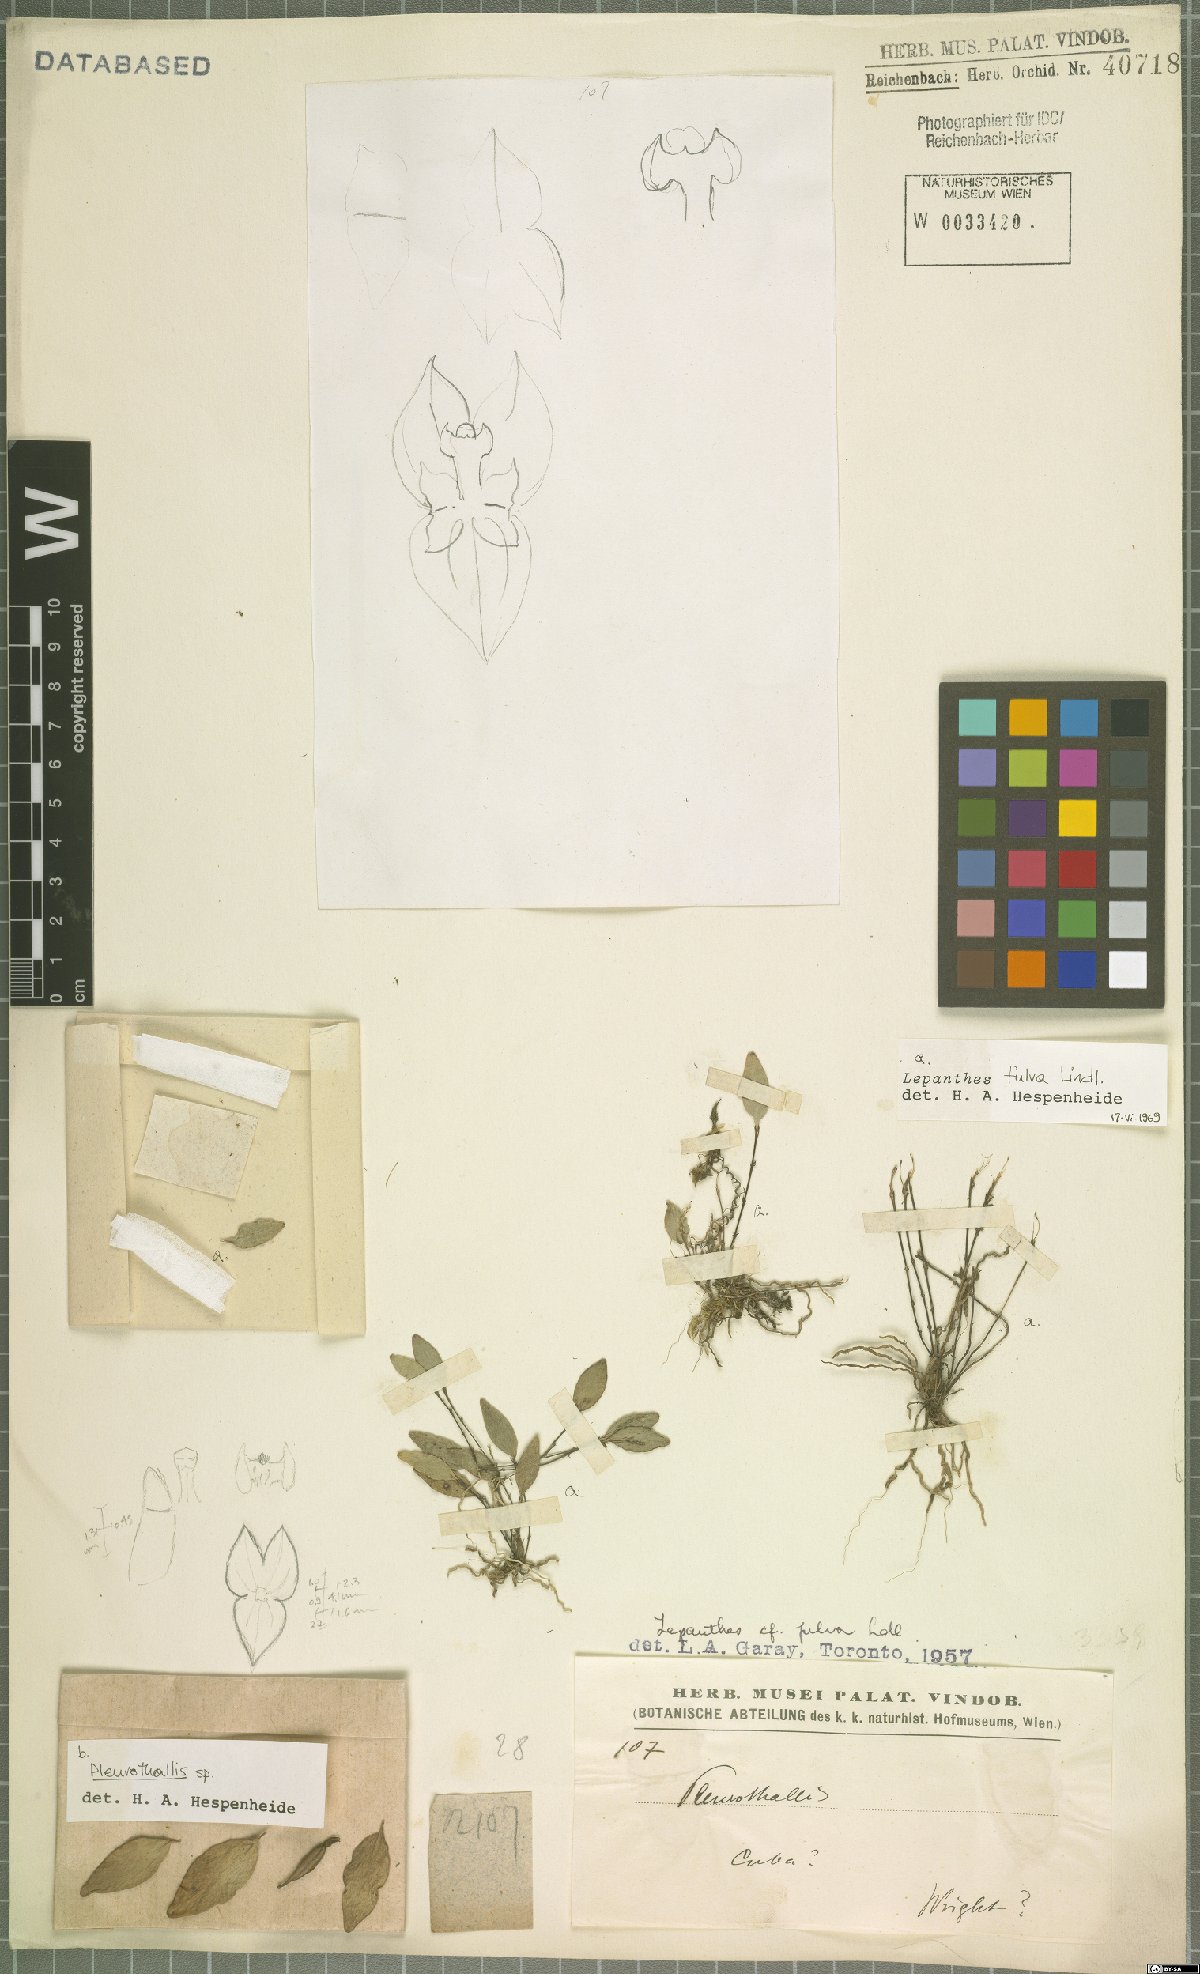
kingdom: Plantae
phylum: Tracheophyta
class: Liliopsida
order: Asparagales
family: Orchidaceae
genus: Lepanthes
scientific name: Lepanthes fulva
